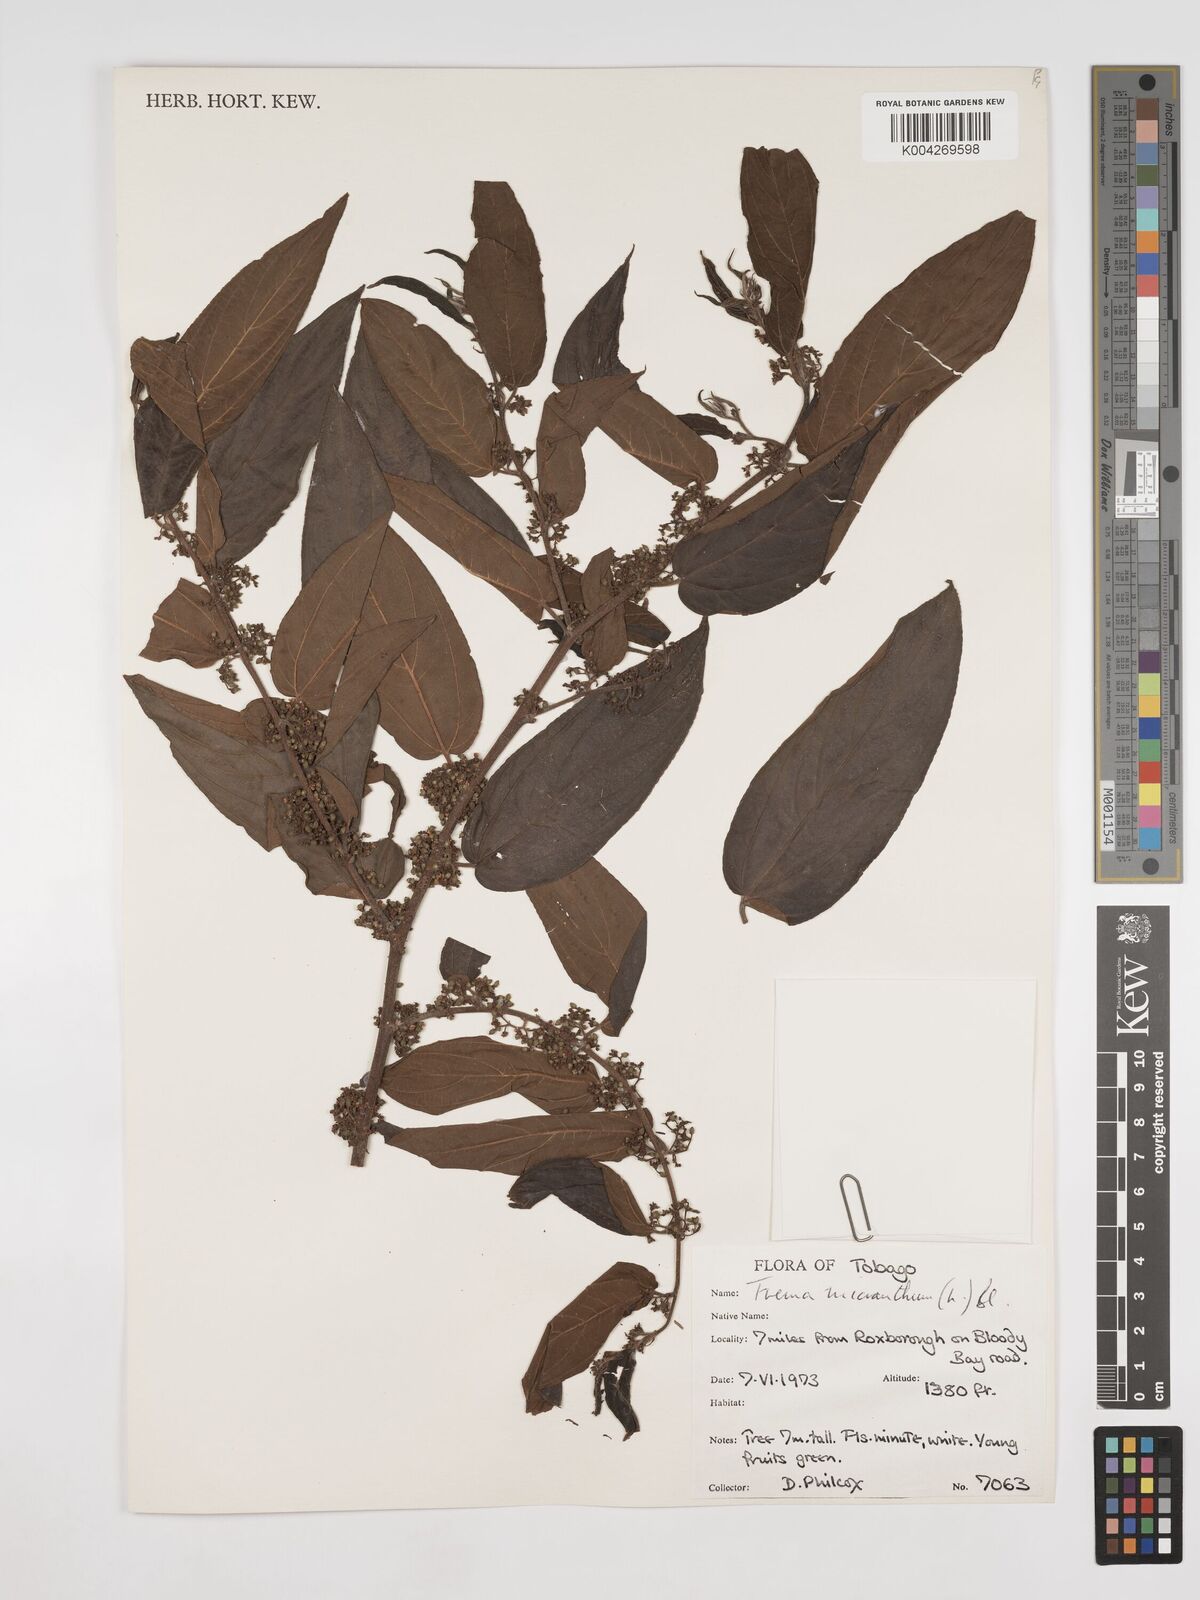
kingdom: Plantae
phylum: Tracheophyta
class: Magnoliopsida
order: Rosales
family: Cannabaceae
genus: Trema
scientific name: Trema micranthum
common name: Jamaican nettletree
